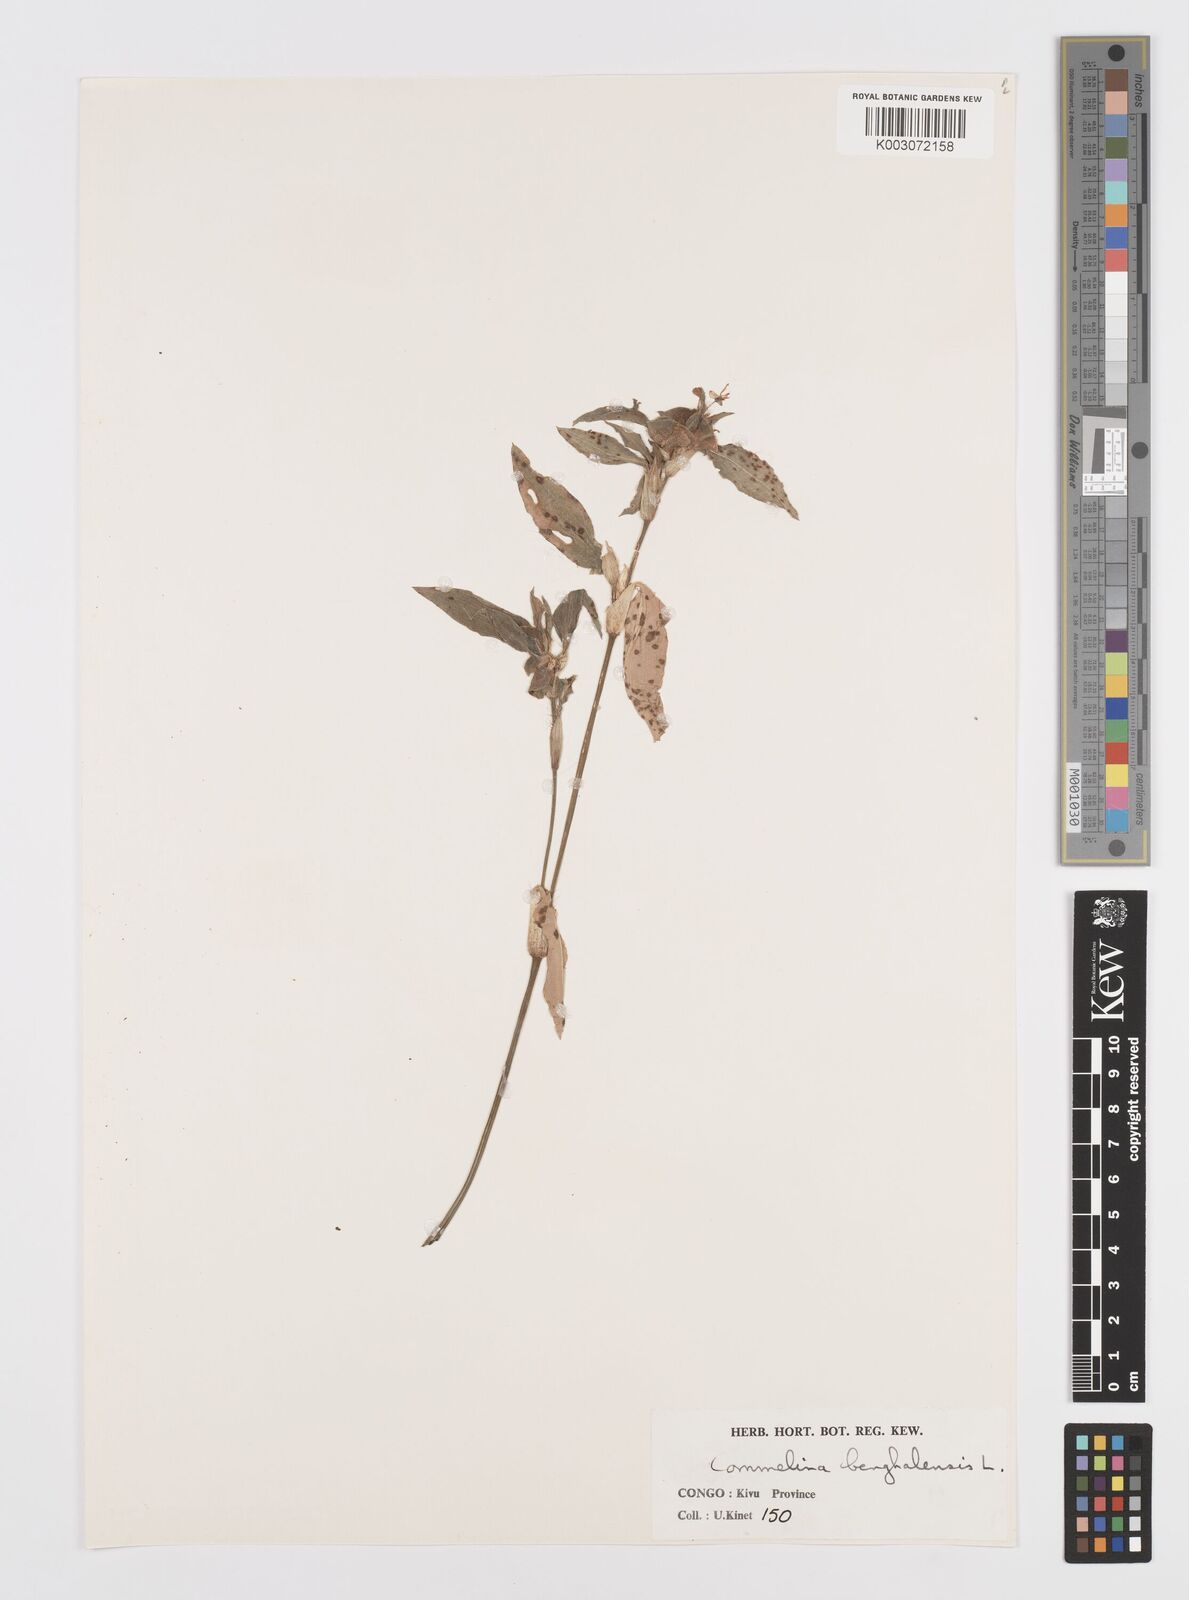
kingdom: Plantae
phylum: Tracheophyta
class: Liliopsida
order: Commelinales
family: Commelinaceae
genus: Commelina
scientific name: Commelina benghalensis
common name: Jio
